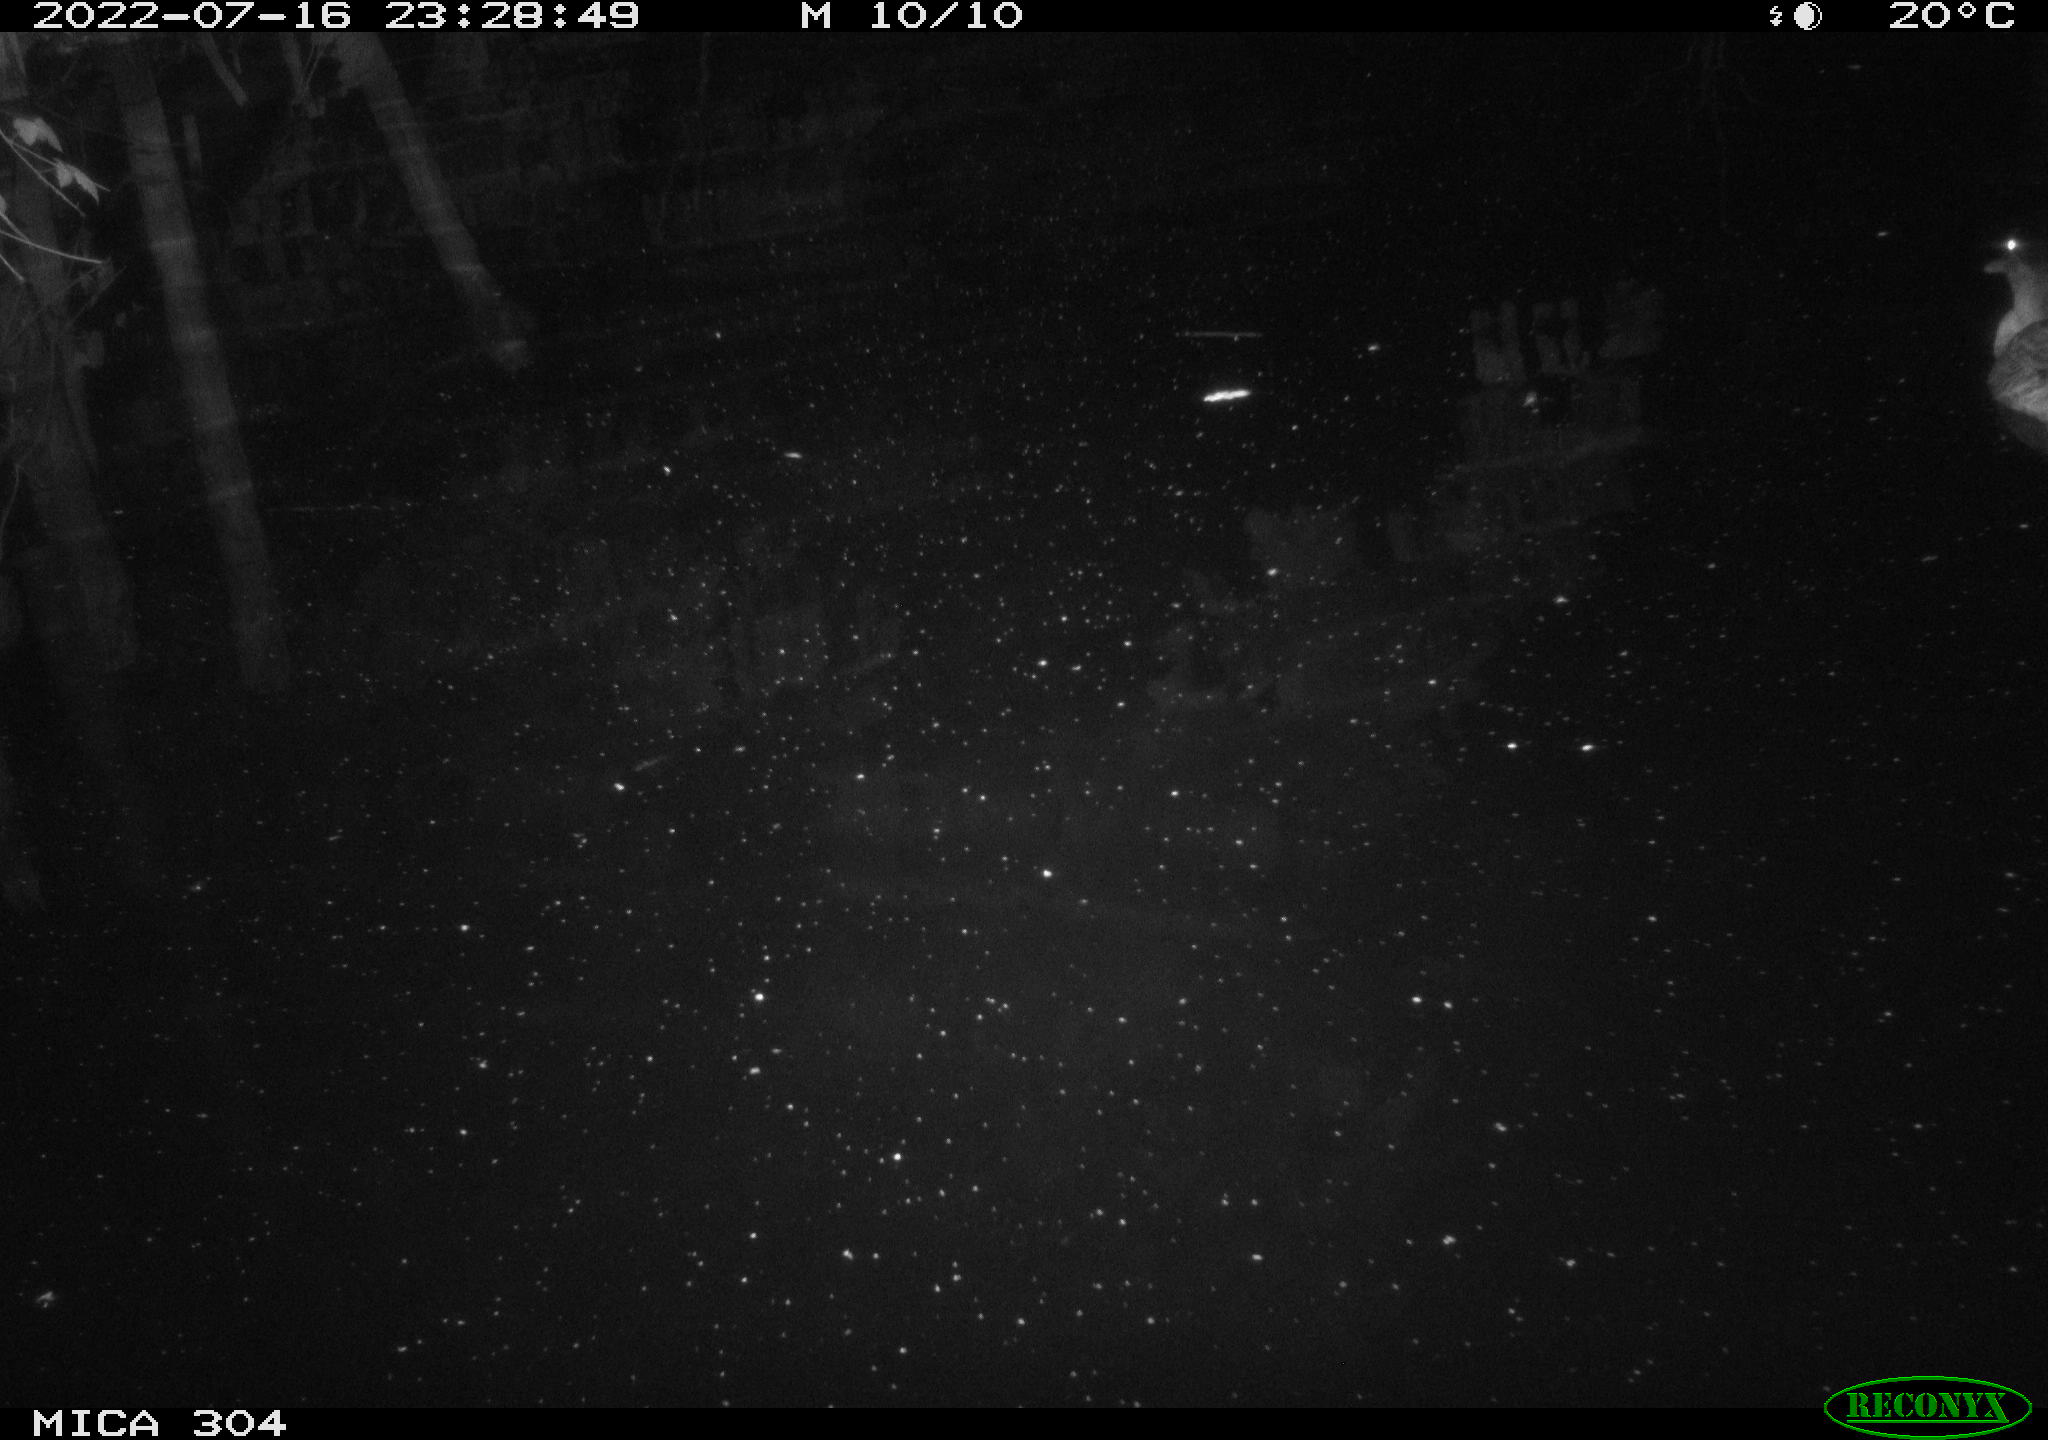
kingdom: Animalia
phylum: Chordata
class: Aves
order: Anseriformes
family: Anatidae
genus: Anas
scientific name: Anas platyrhynchos
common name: Mallard
